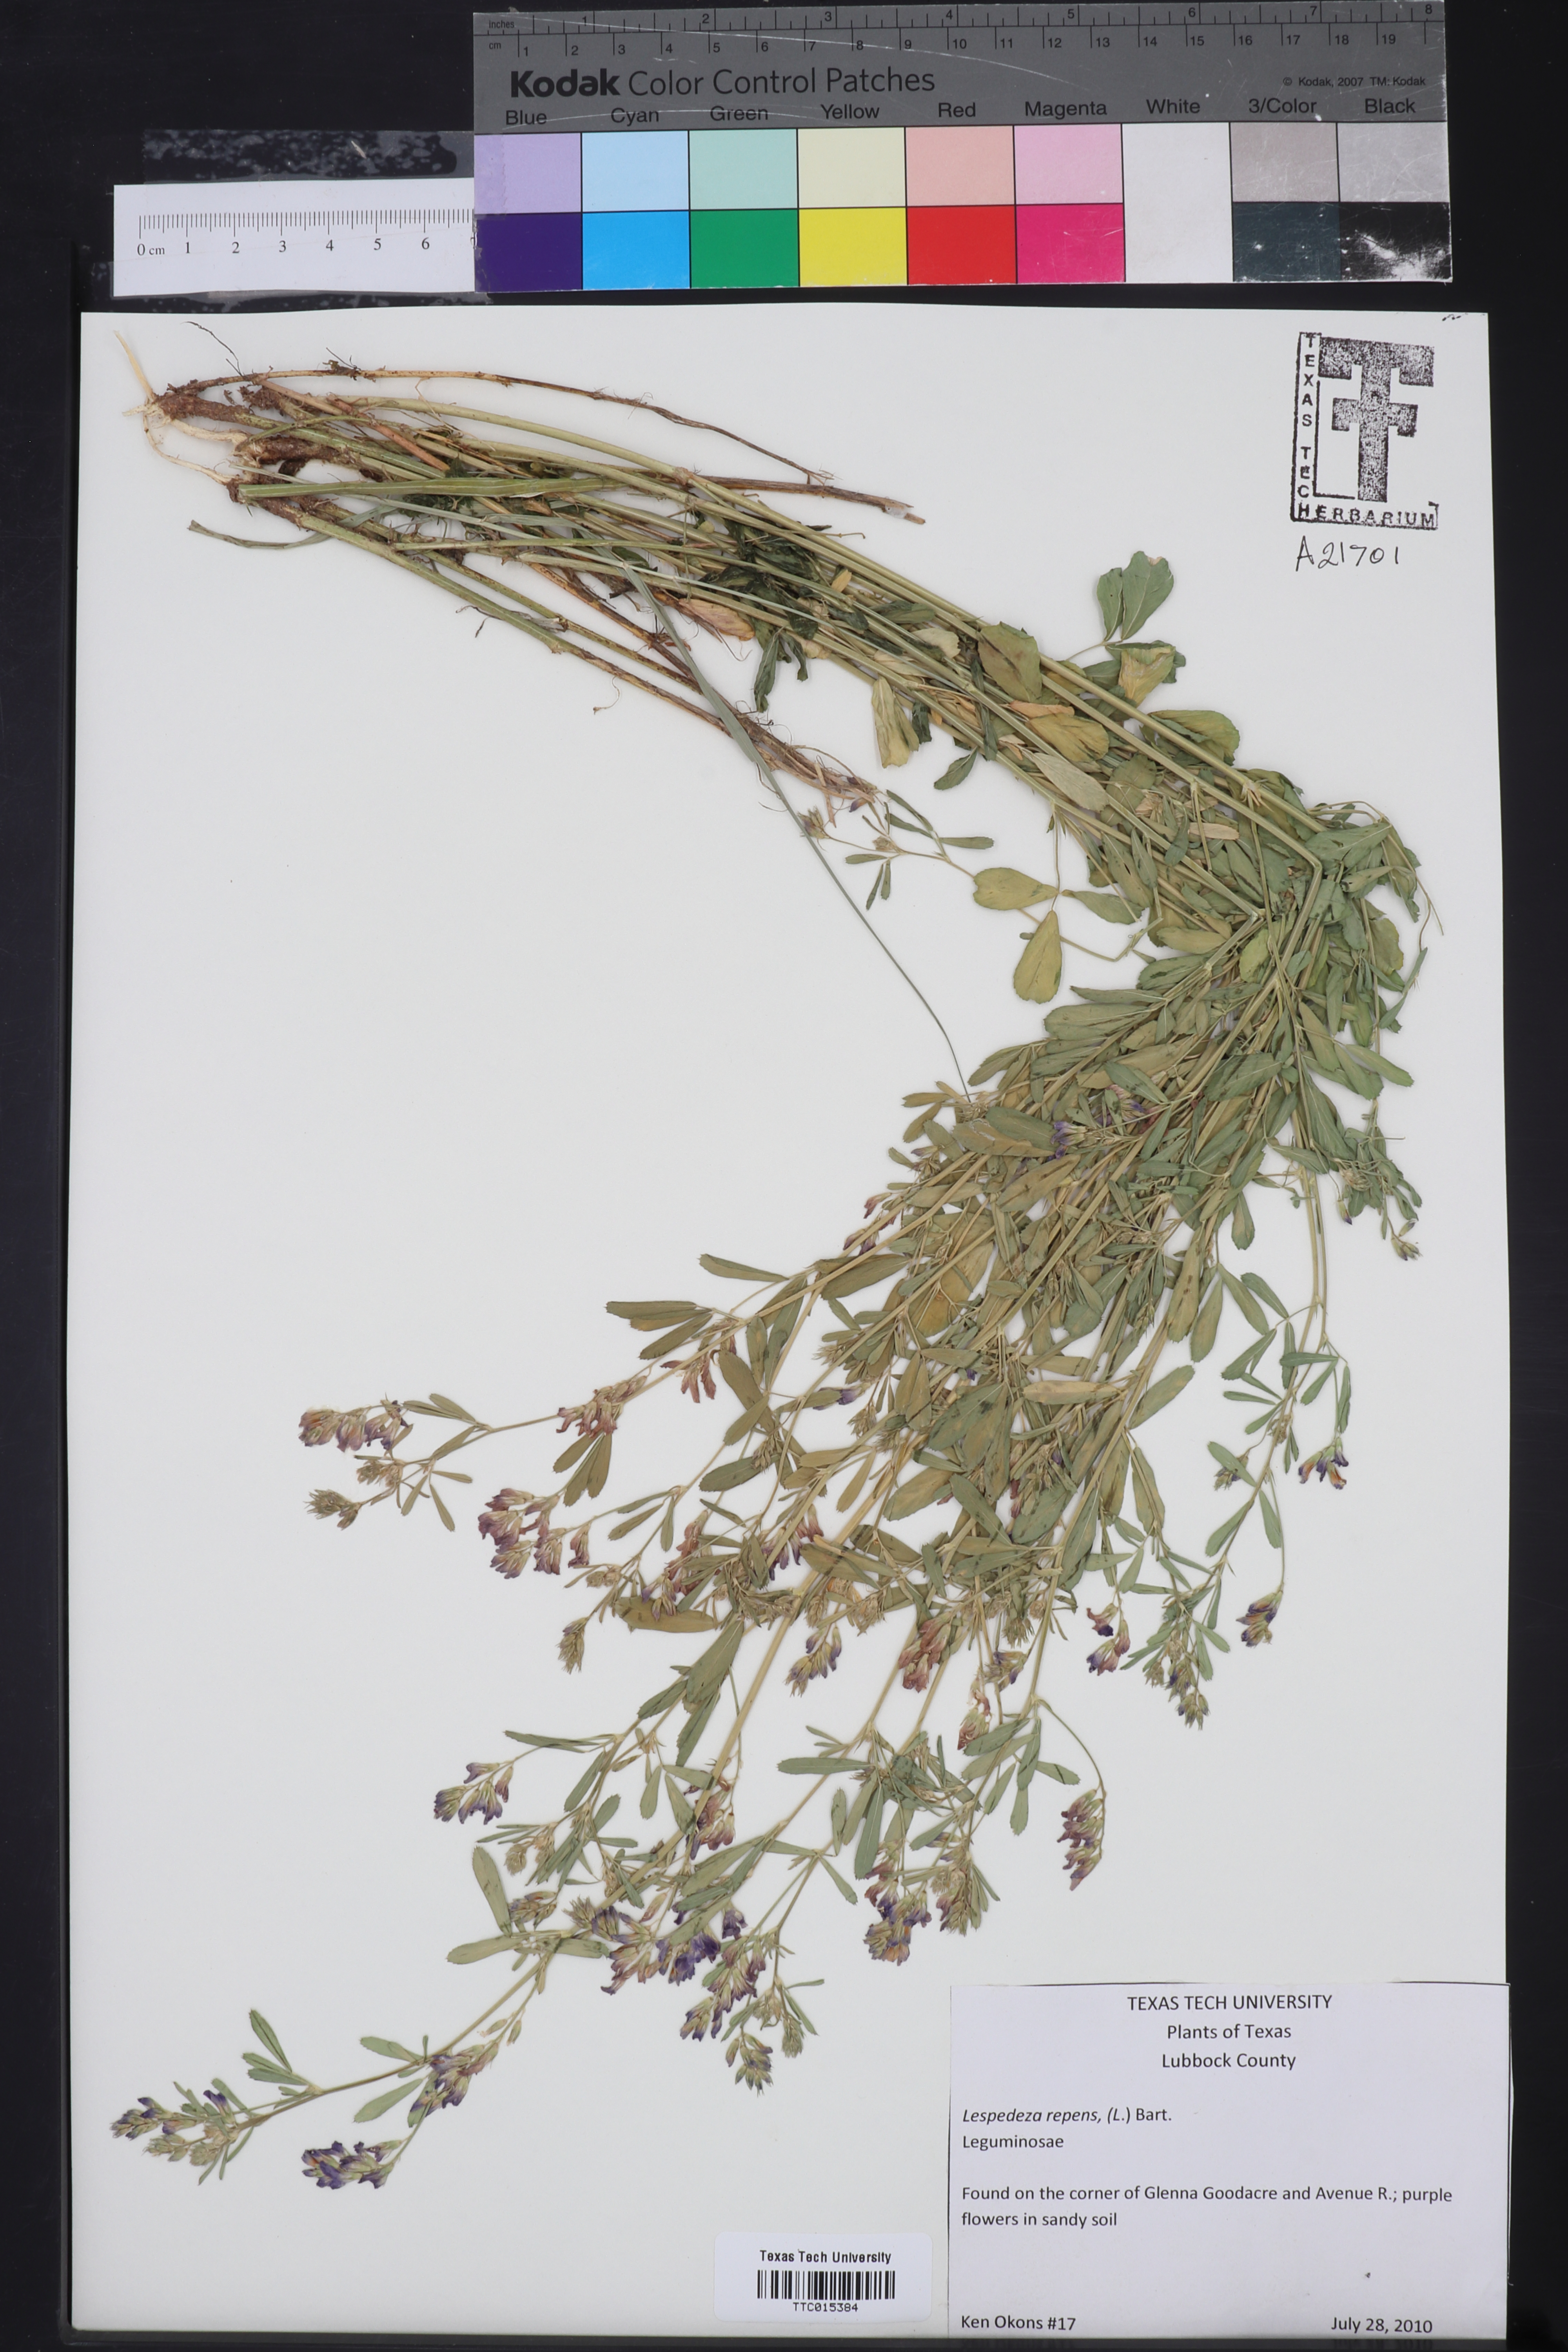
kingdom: Plantae
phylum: Tracheophyta
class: Magnoliopsida
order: Fabales
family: Fabaceae
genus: Lespedeza
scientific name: Lespedeza repens
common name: Creeping bush-clover
